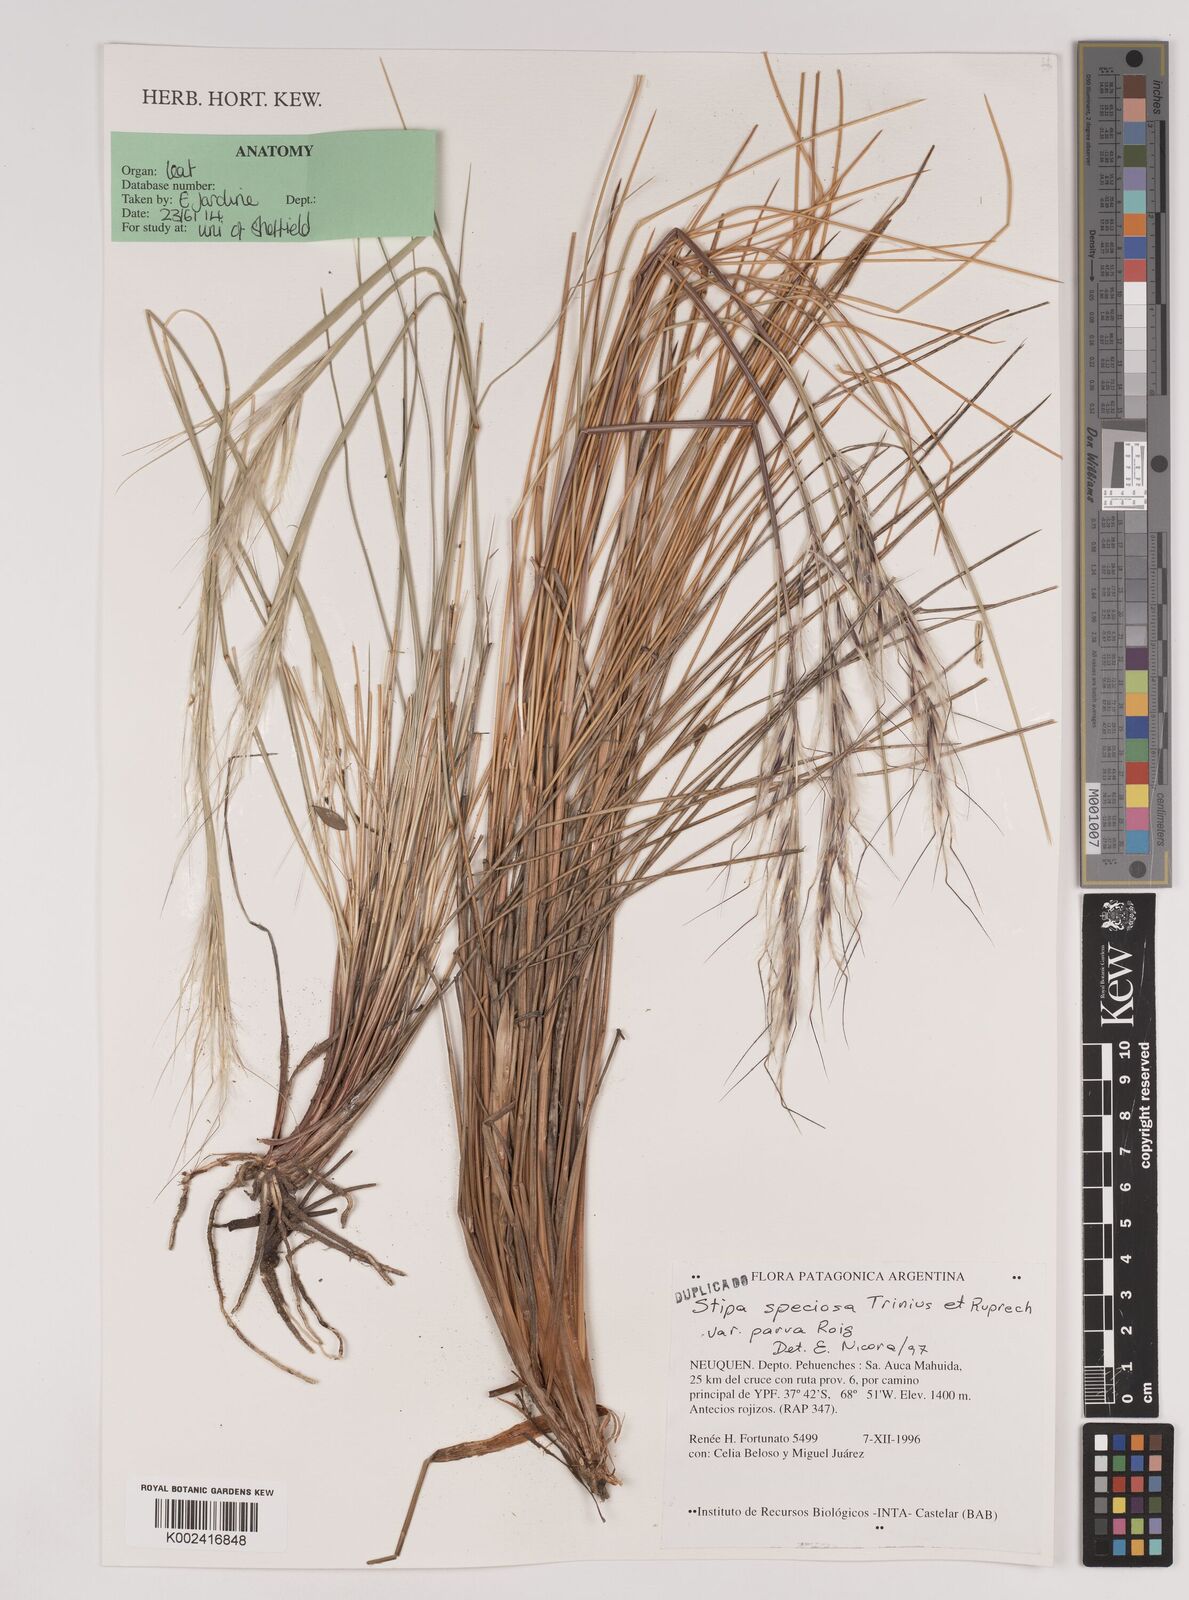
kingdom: Plantae
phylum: Tracheophyta
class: Liliopsida
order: Poales
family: Poaceae
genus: Pappostipa
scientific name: Pappostipa speciosa
